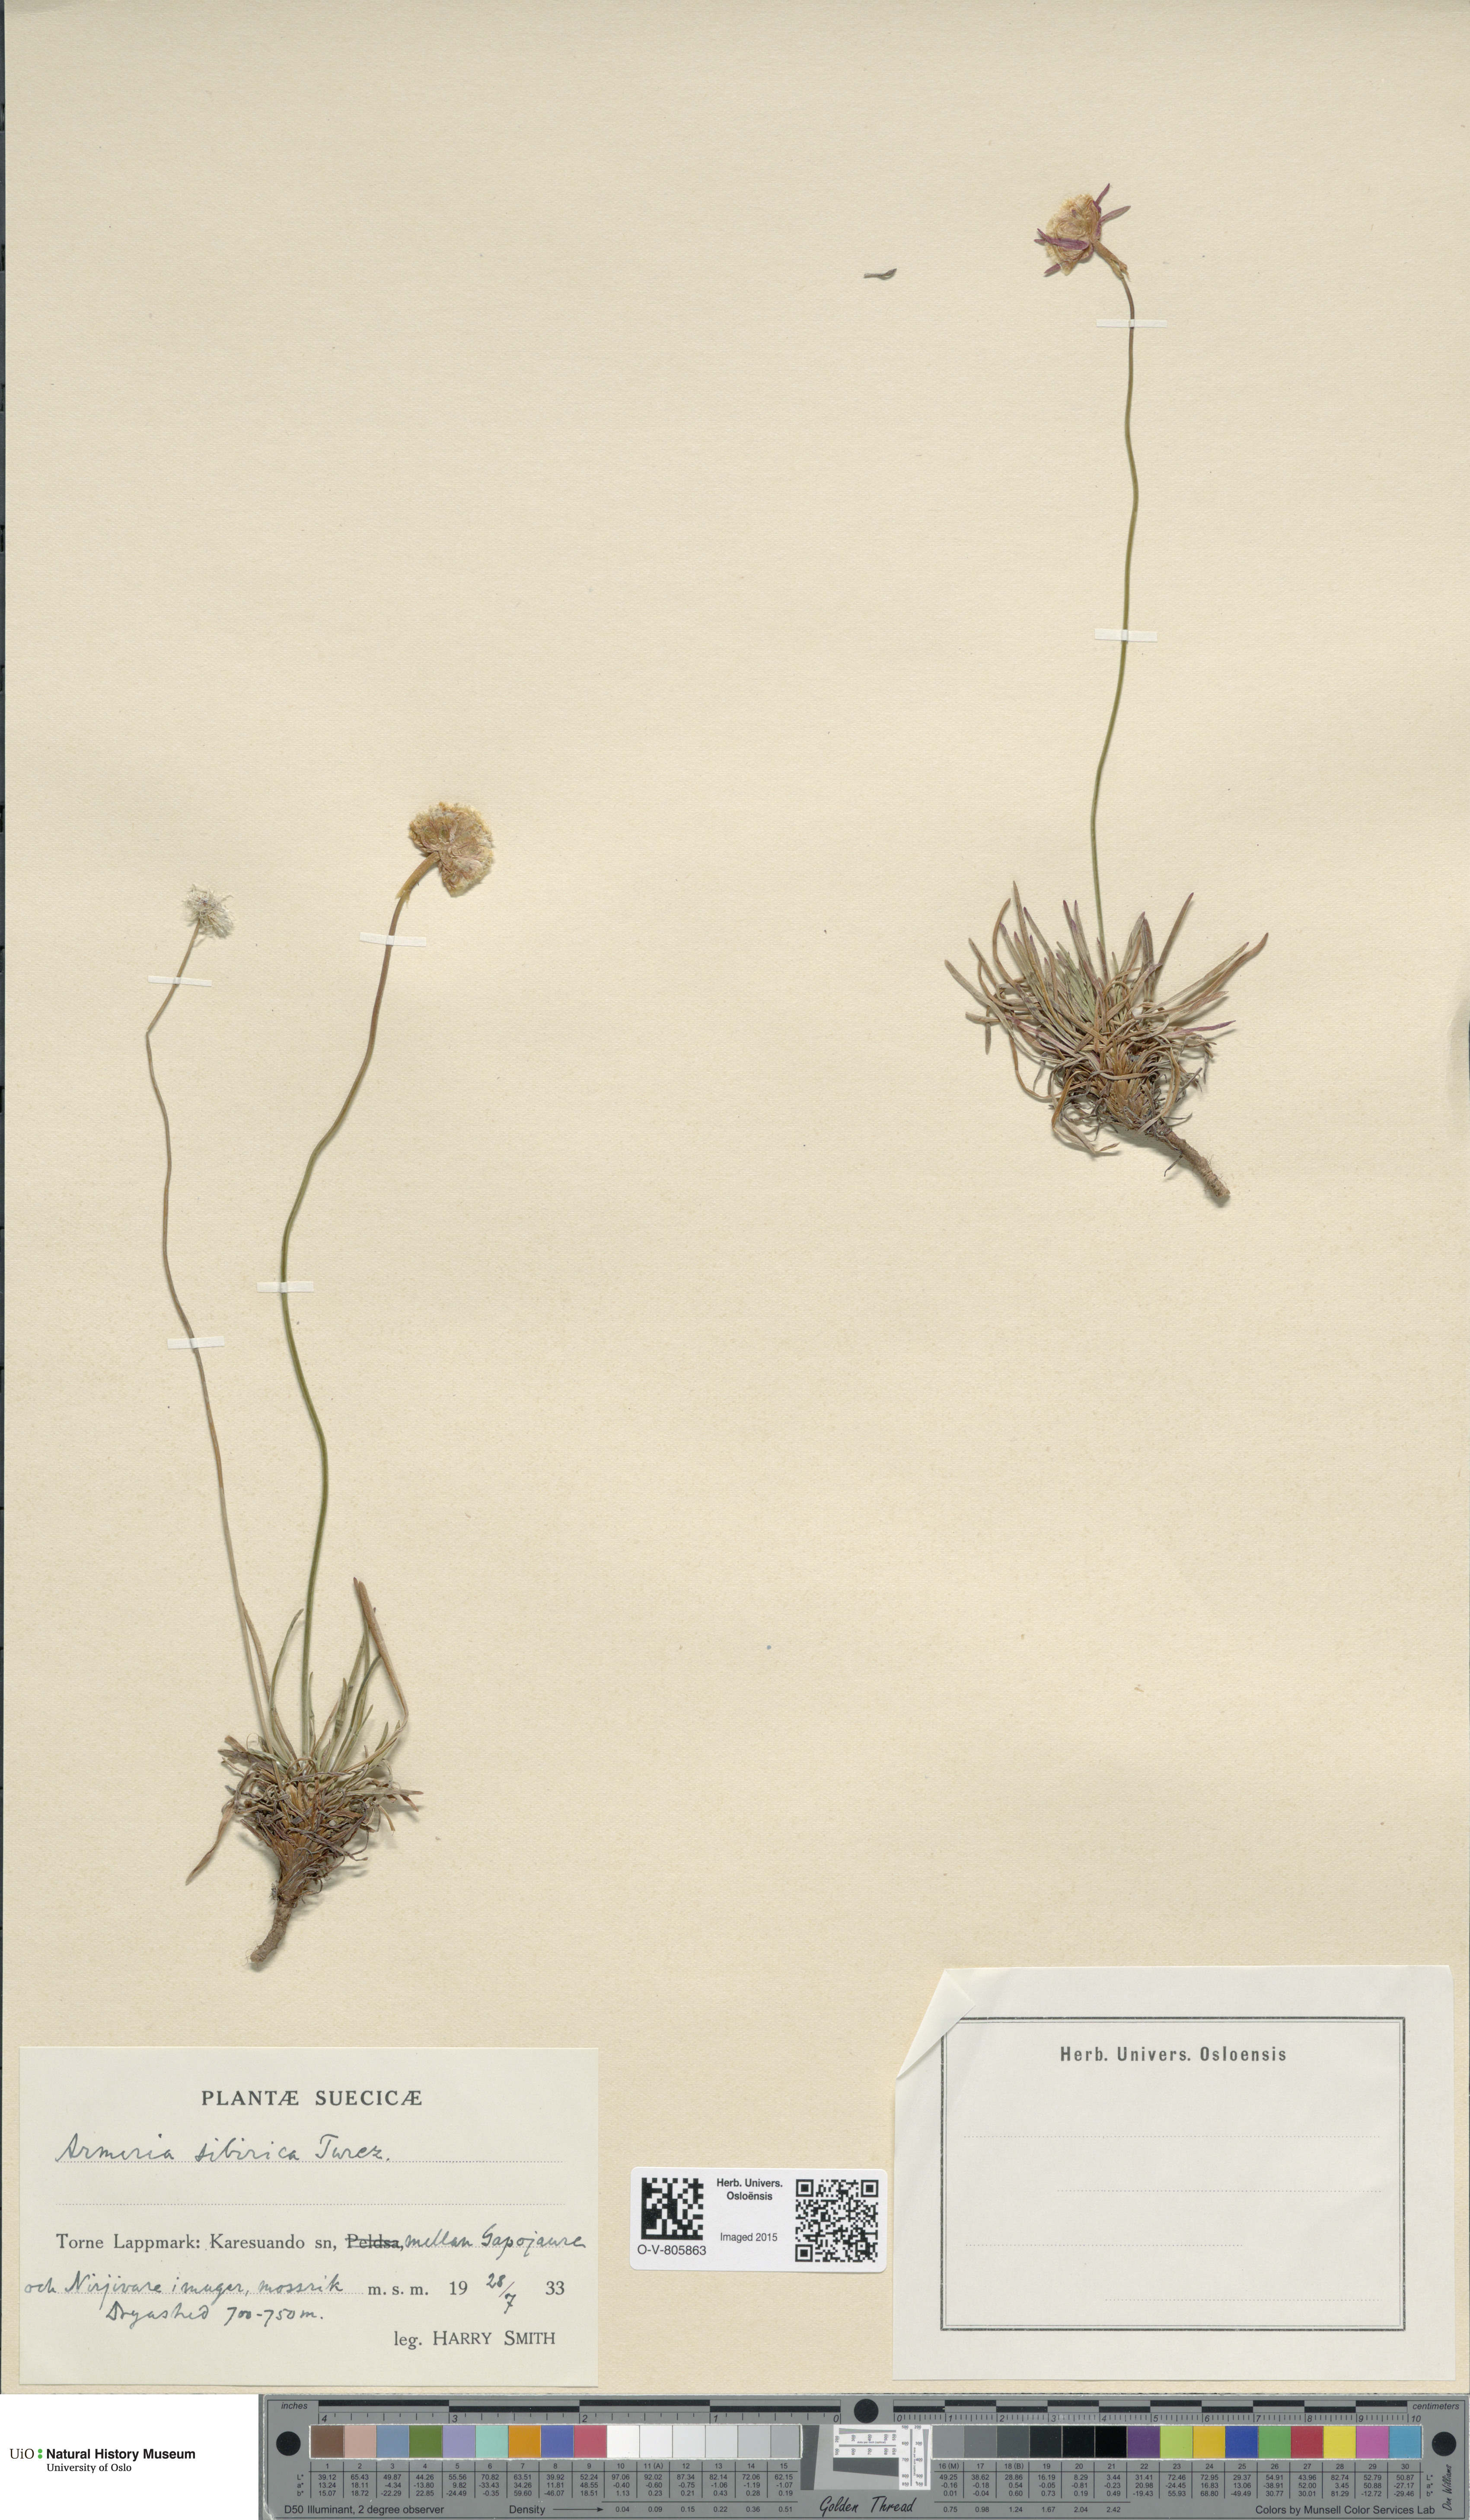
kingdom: Plantae
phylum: Tracheophyta
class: Magnoliopsida
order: Caryophyllales
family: Plumbaginaceae
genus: Armeria
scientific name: Armeria maritima
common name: Thrift
